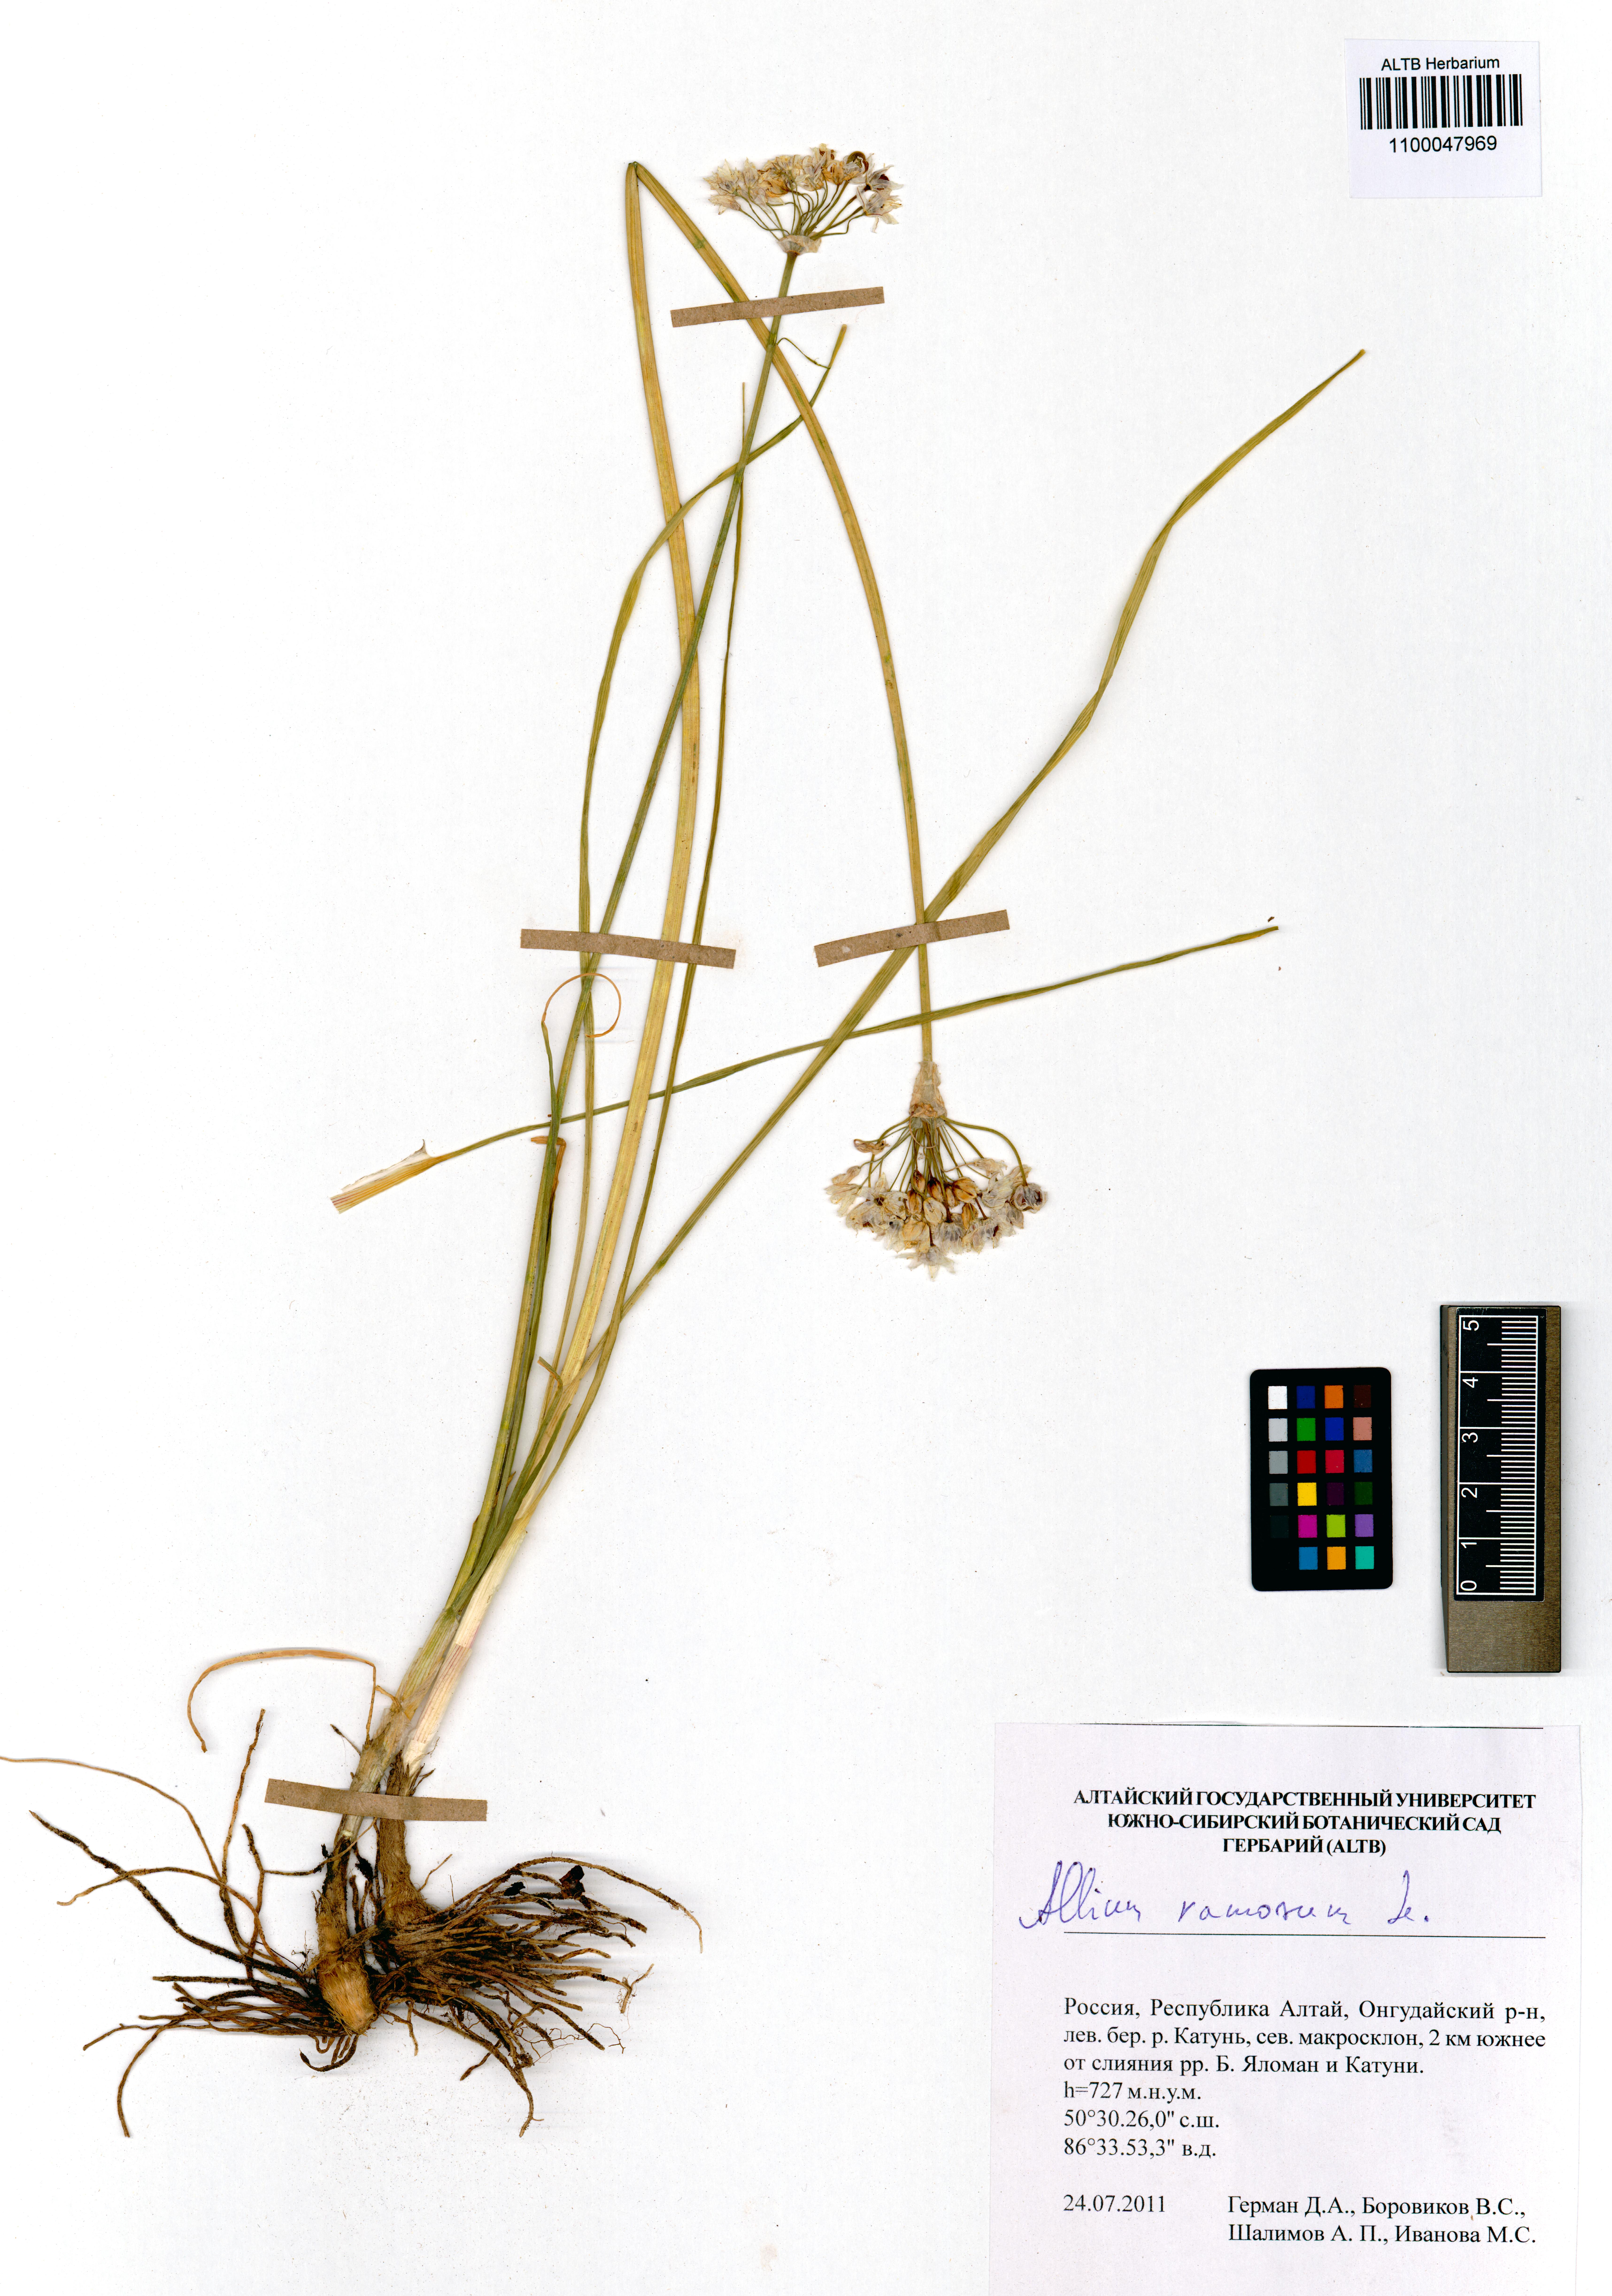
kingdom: Plantae
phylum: Tracheophyta
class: Liliopsida
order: Asparagales
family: Amaryllidaceae
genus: Allium
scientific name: Allium ramosum
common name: Fragrant garlic
